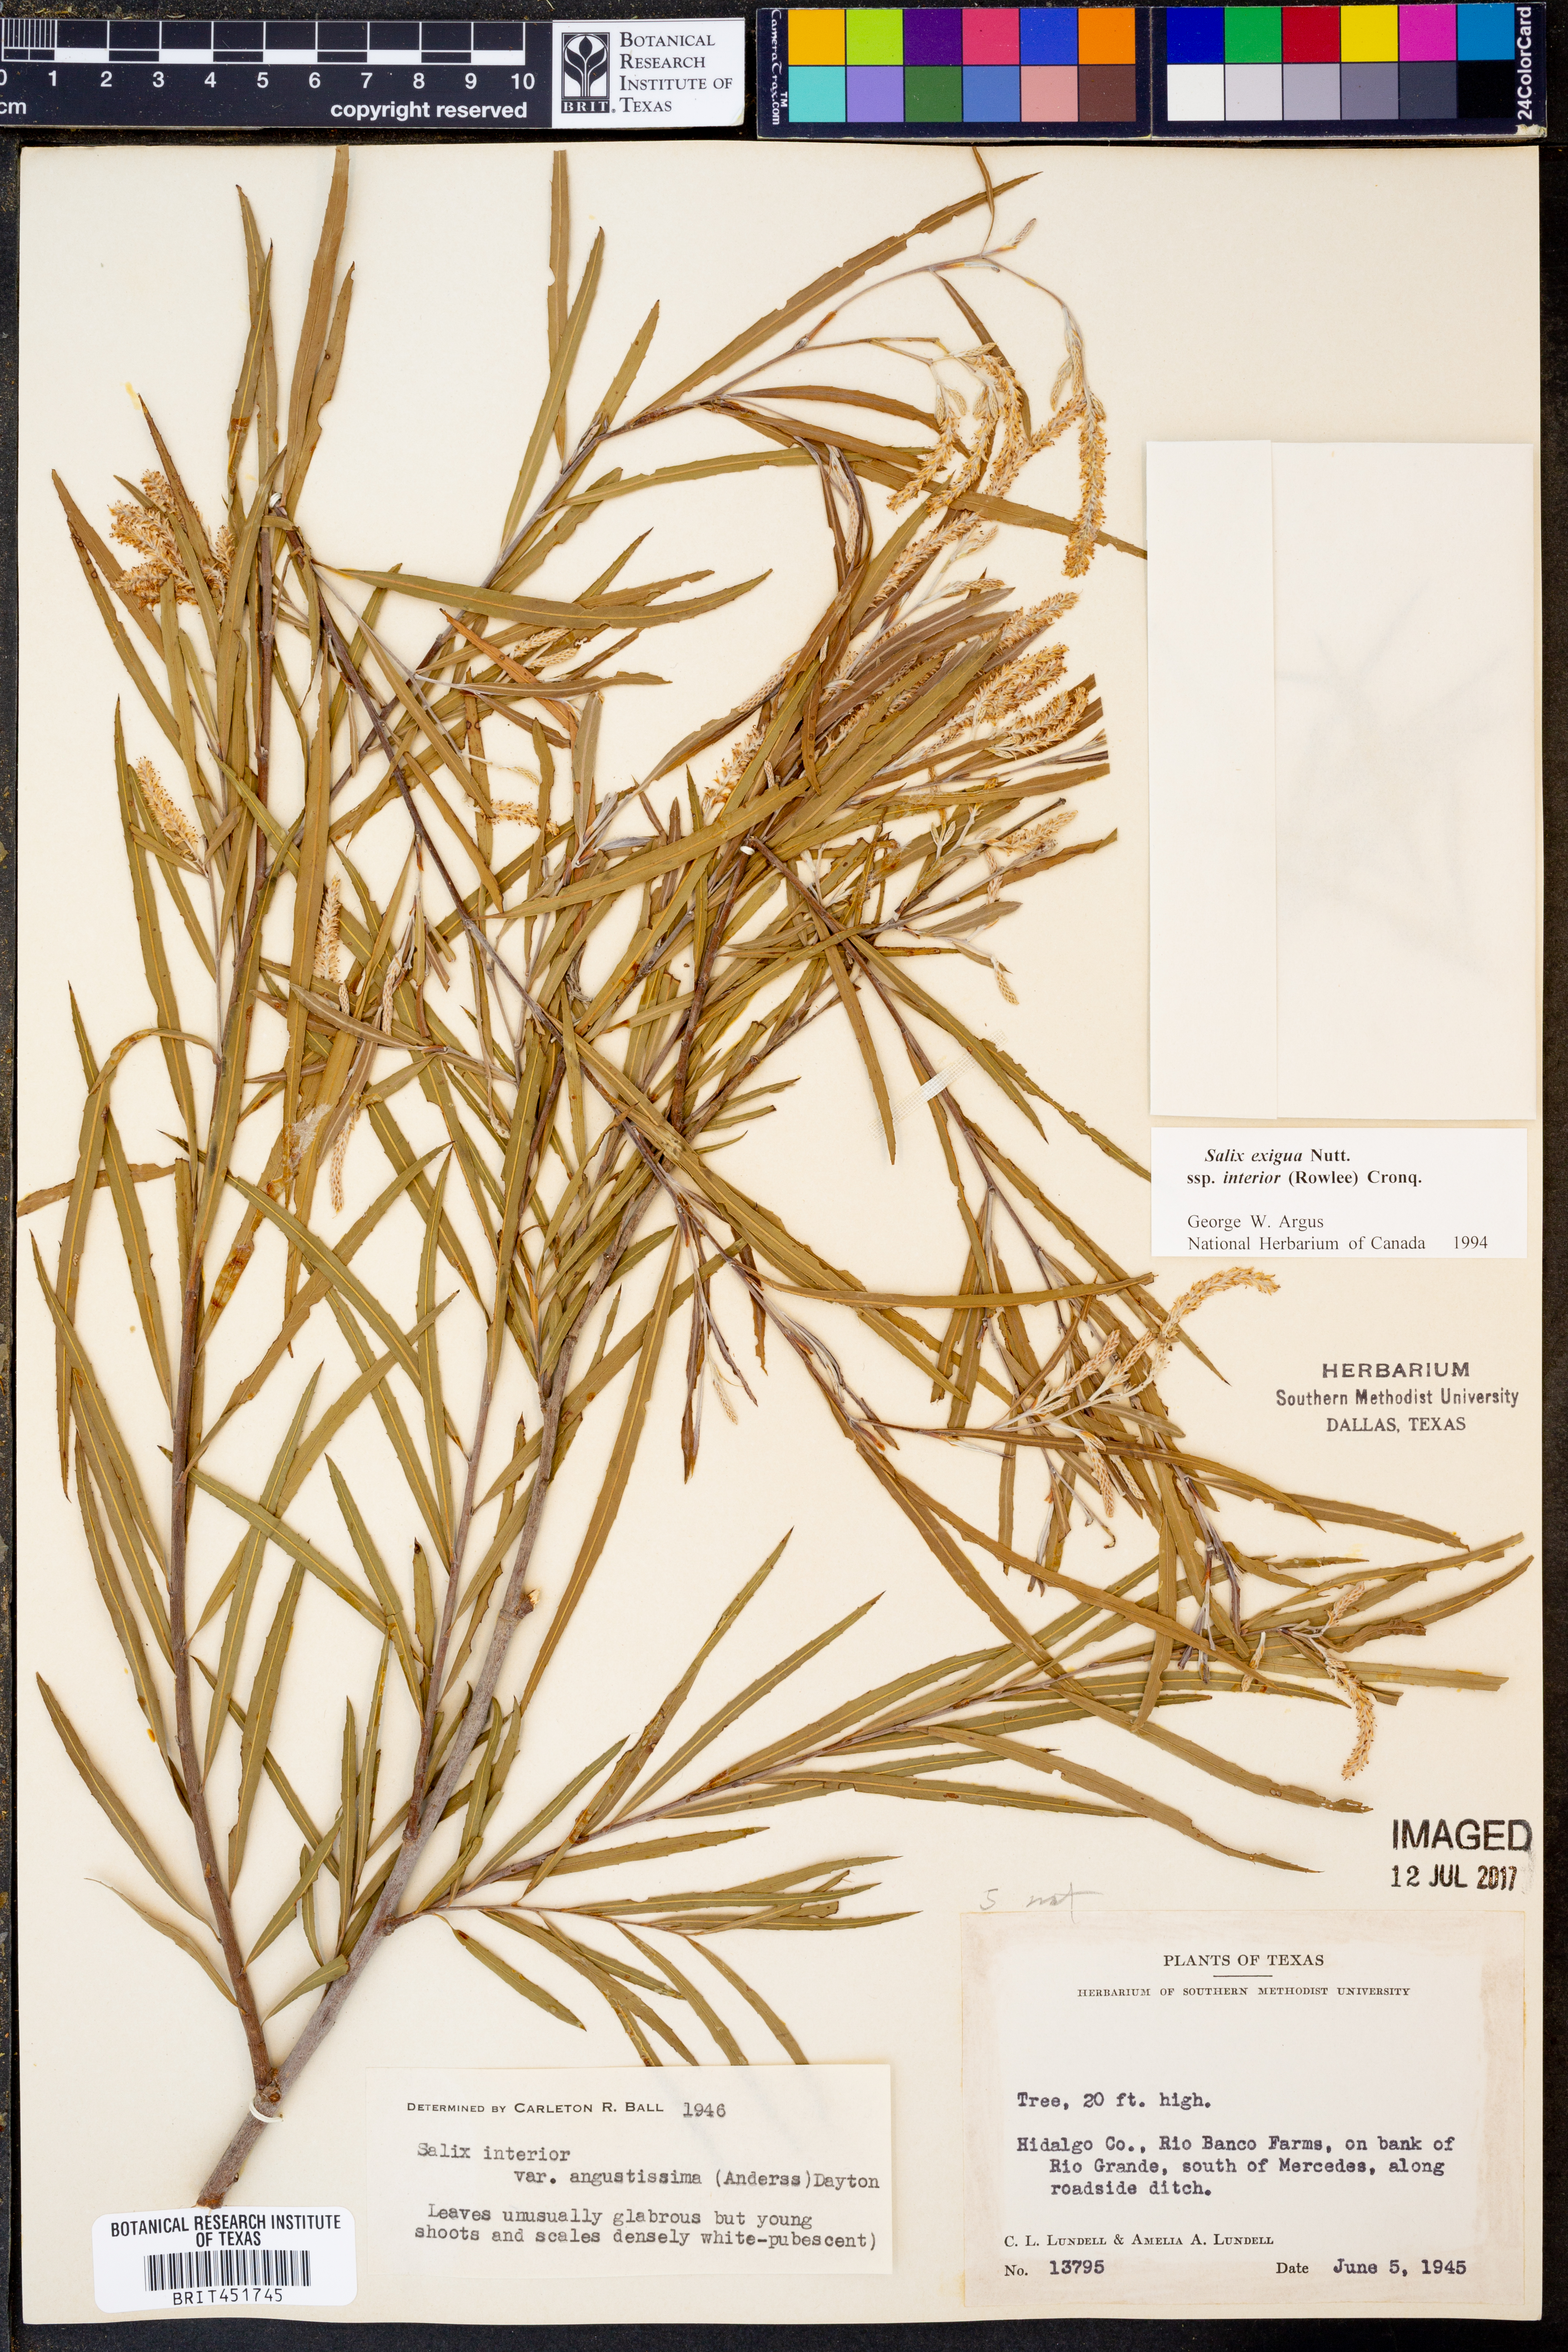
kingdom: Plantae
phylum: Tracheophyta
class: Magnoliopsida
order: Malpighiales
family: Salicaceae
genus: Salix
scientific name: Salix interior
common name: Sandbar willow
